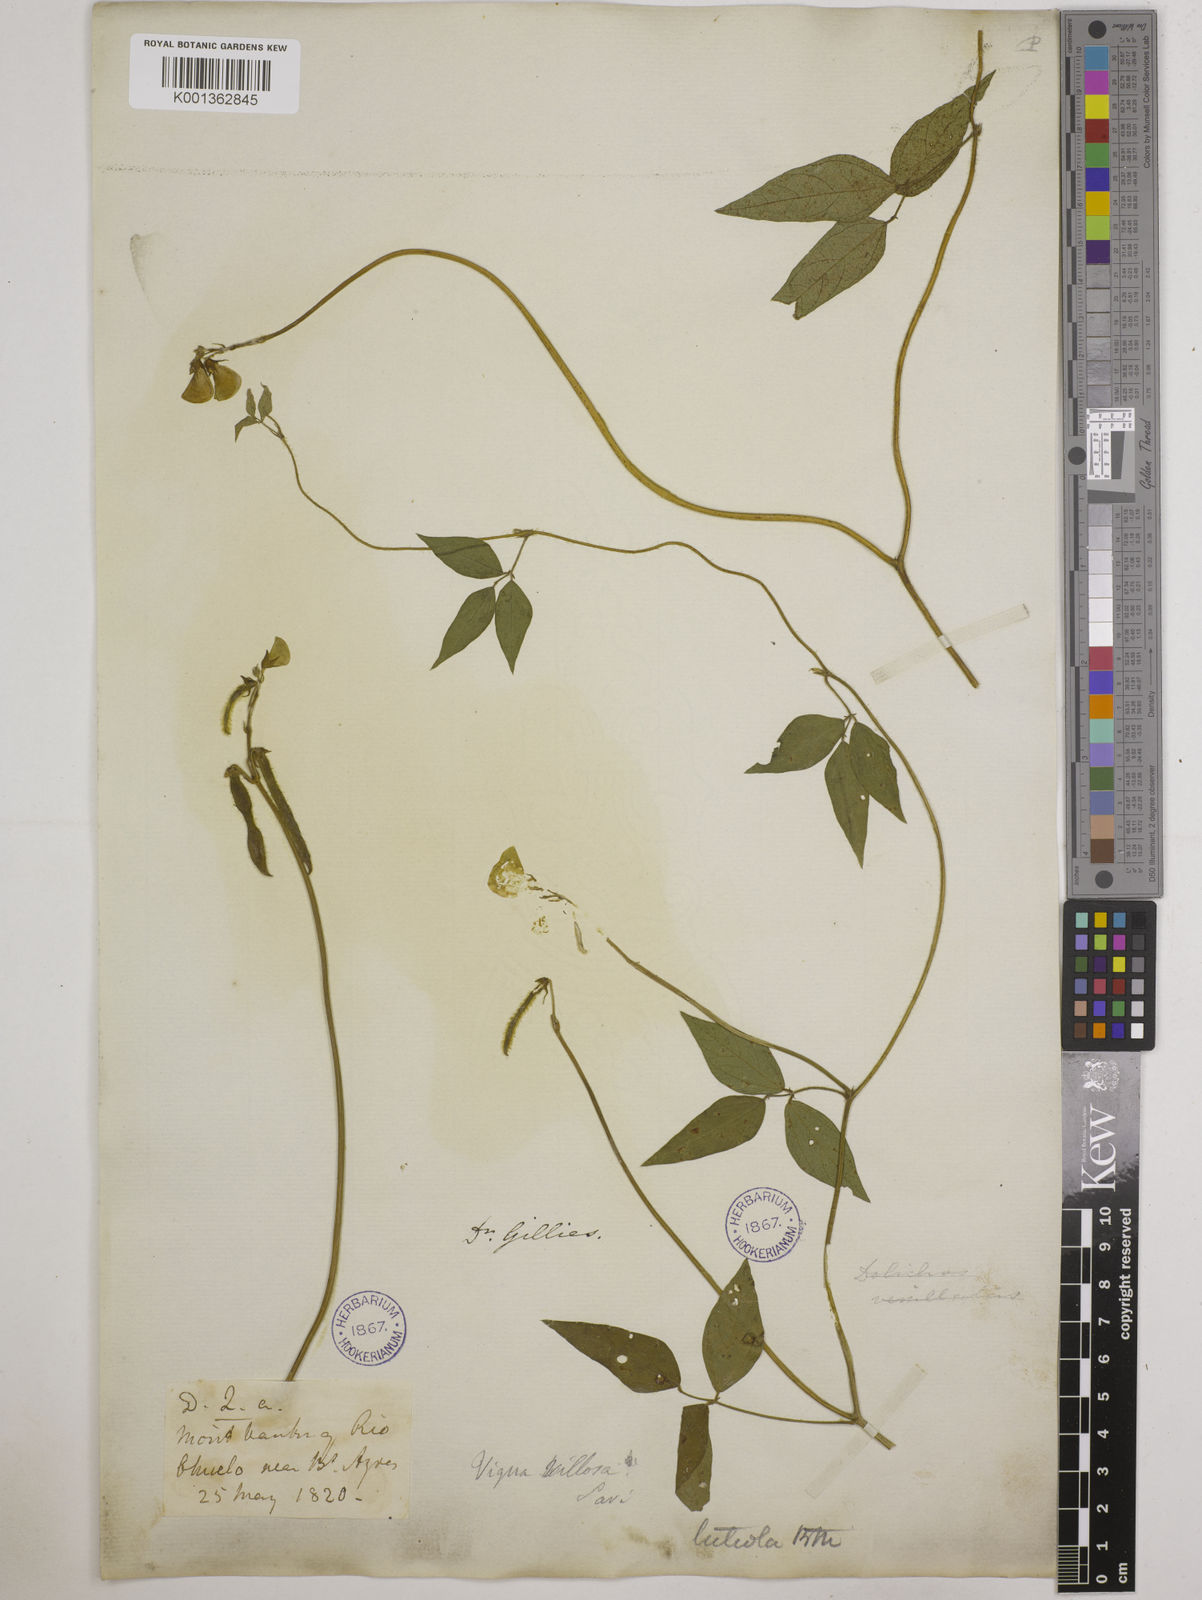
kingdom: Plantae
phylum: Tracheophyta
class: Magnoliopsida
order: Fabales
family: Fabaceae
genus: Vigna
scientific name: Vigna luteola
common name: Hairypod cowpea
